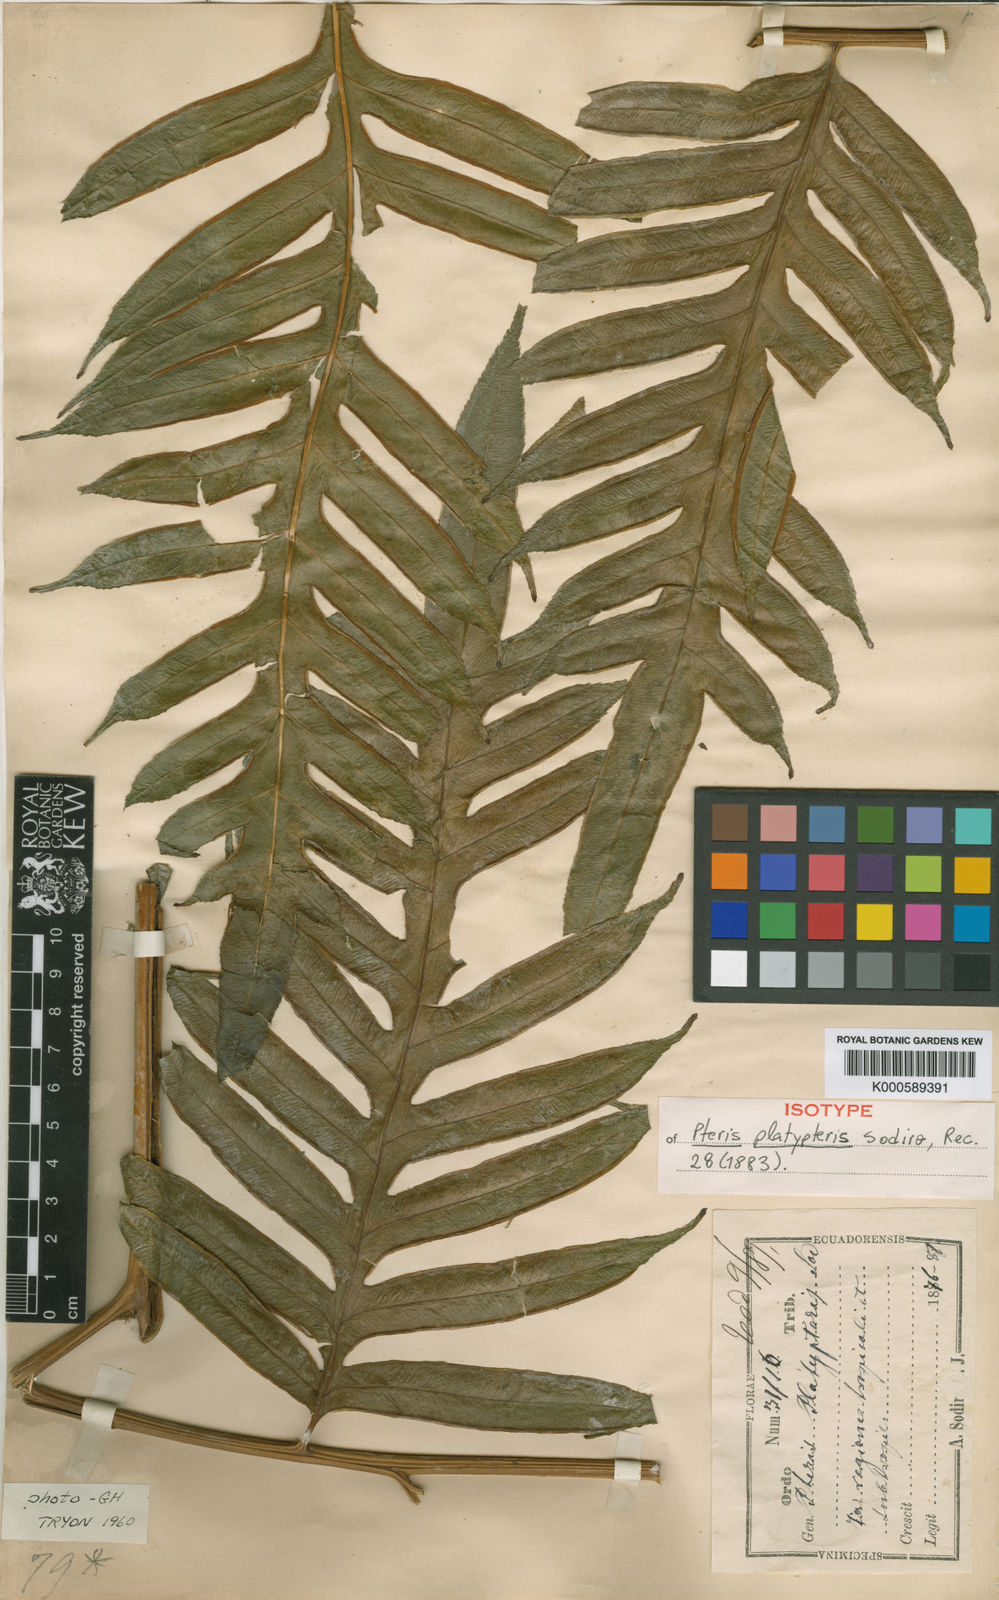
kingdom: Plantae
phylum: Tracheophyta
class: Polypodiopsida
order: Polypodiales
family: Pteridaceae
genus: Pteris
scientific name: Pteris platypteris
